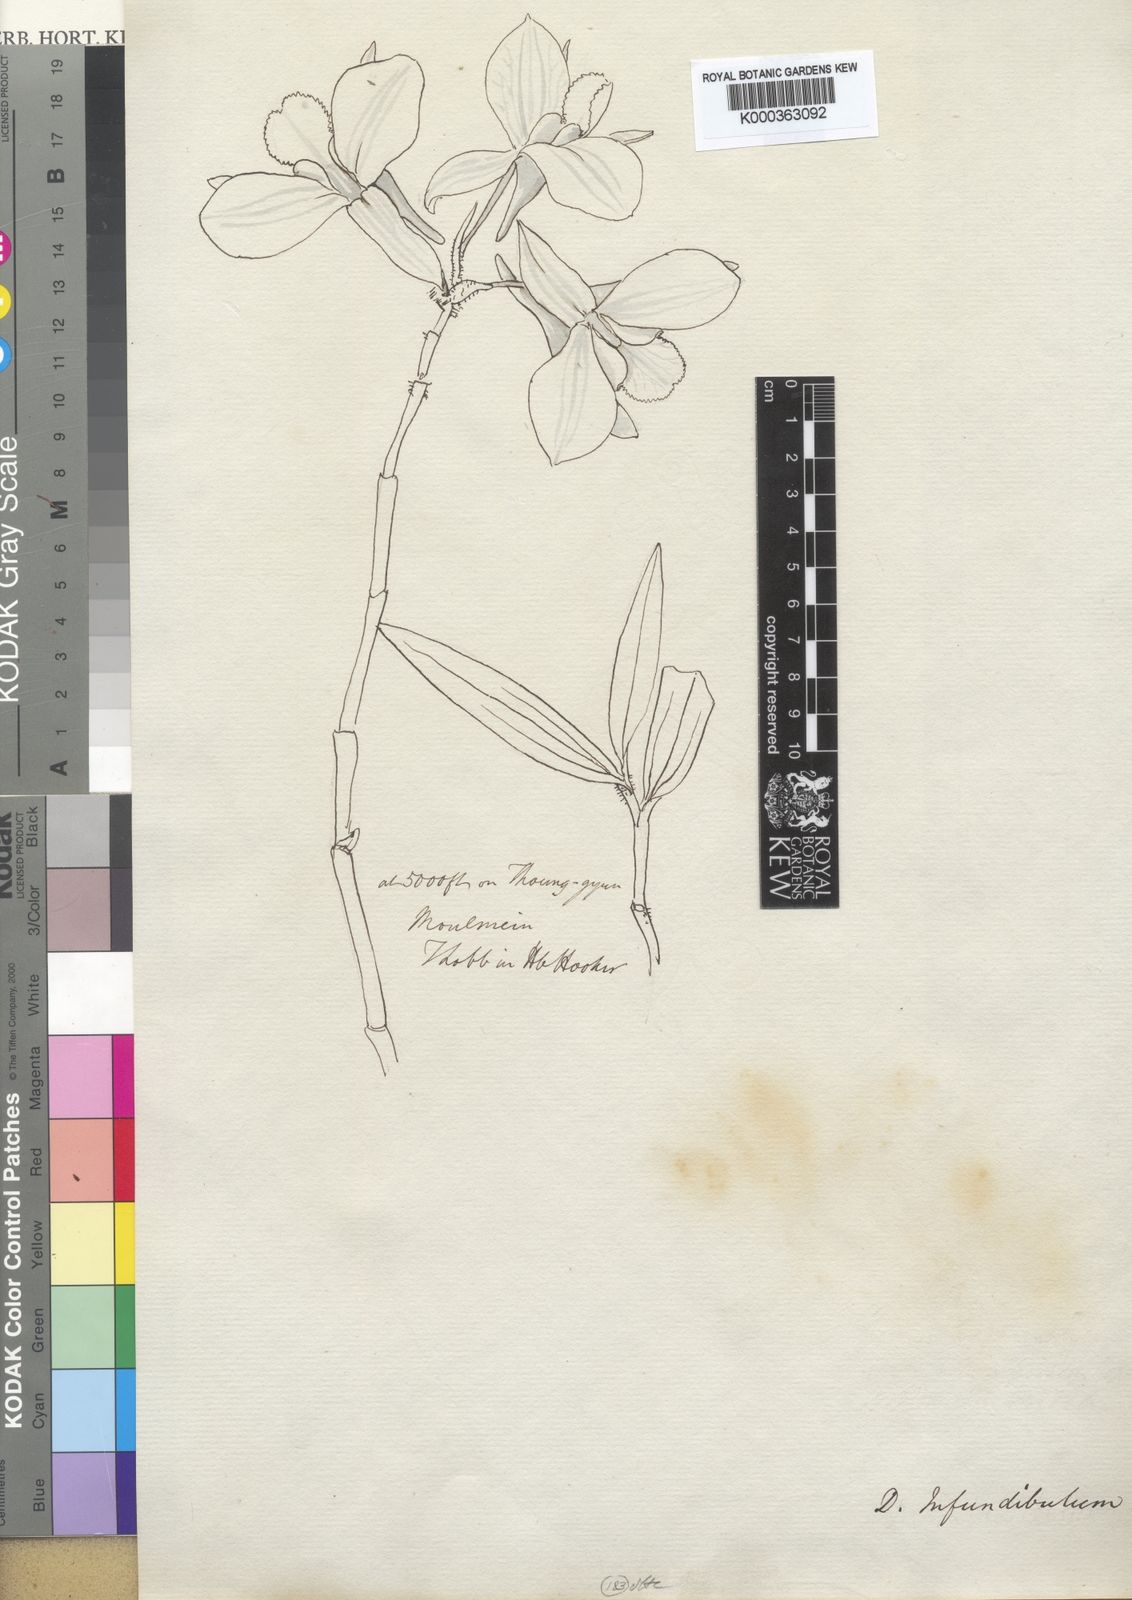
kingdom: Plantae
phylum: Tracheophyta
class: Liliopsida
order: Asparagales
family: Orchidaceae
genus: Dendrobium
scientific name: Dendrobium infundibulum
